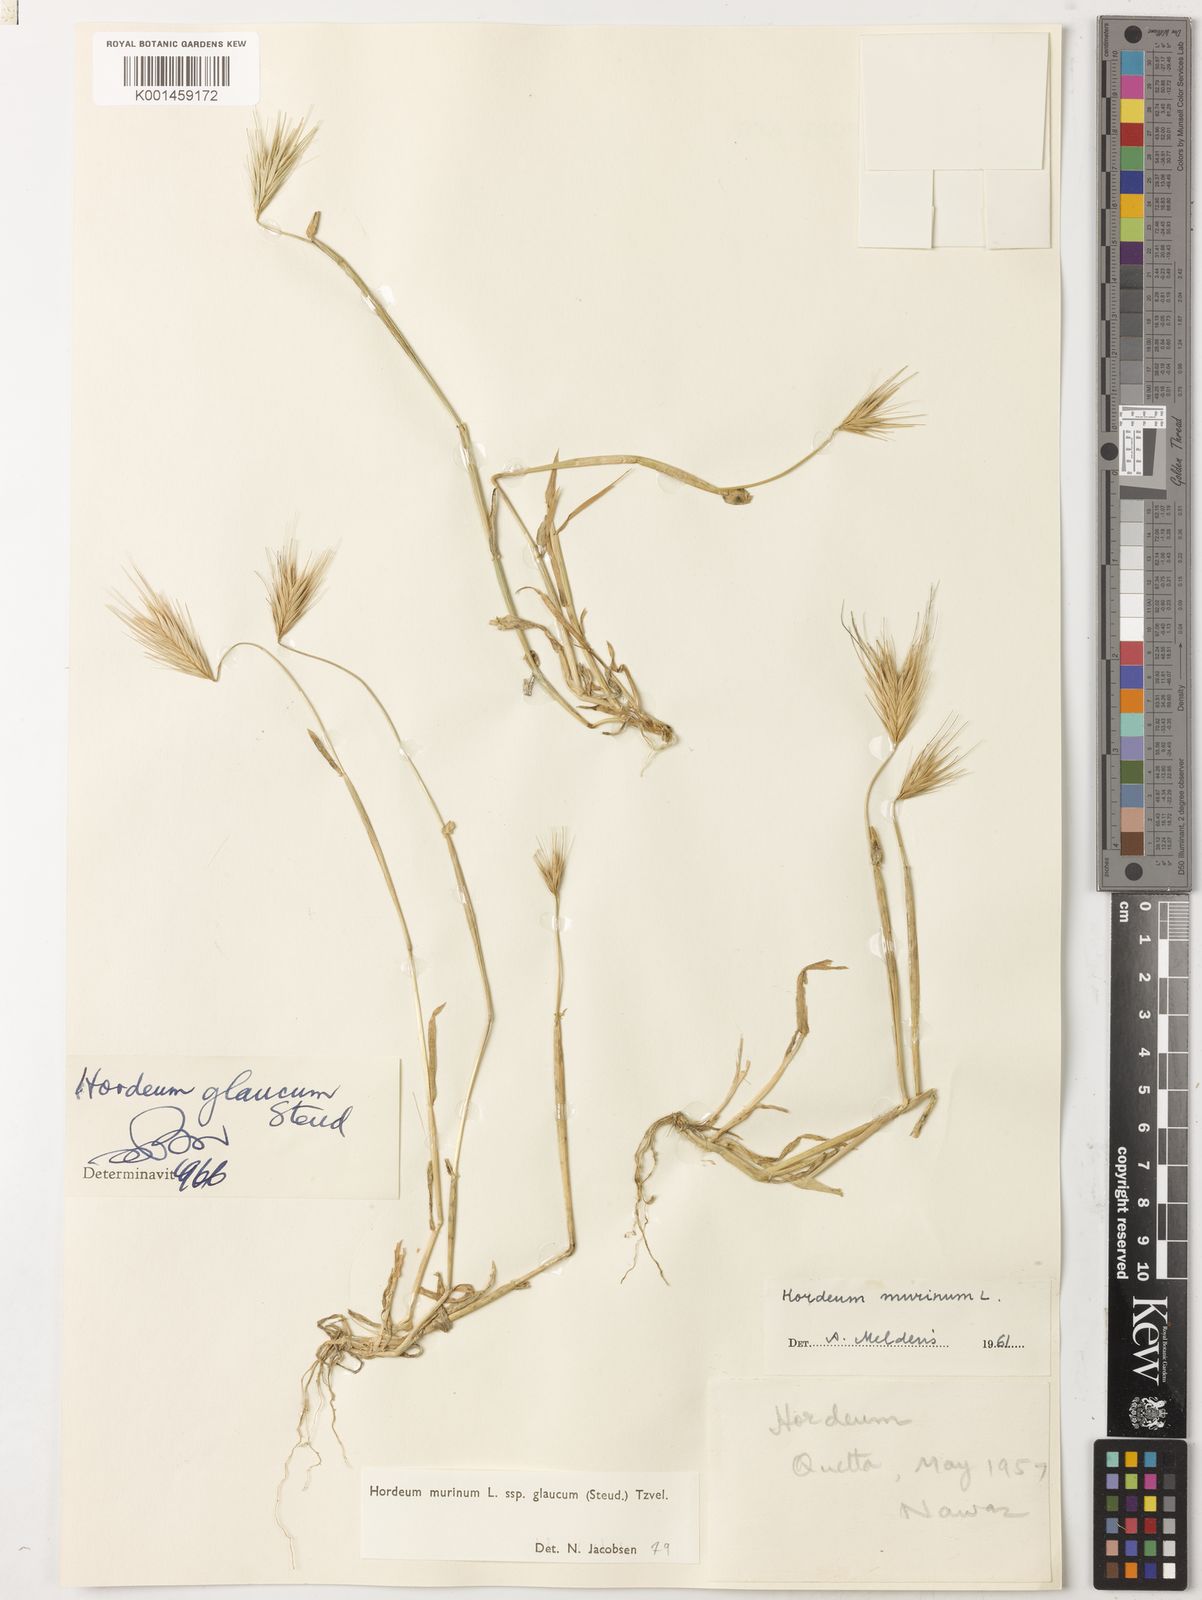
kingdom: Plantae
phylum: Tracheophyta
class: Liliopsida
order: Poales
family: Poaceae
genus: Hordeum
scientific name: Hordeum murinum
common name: Wall barley
